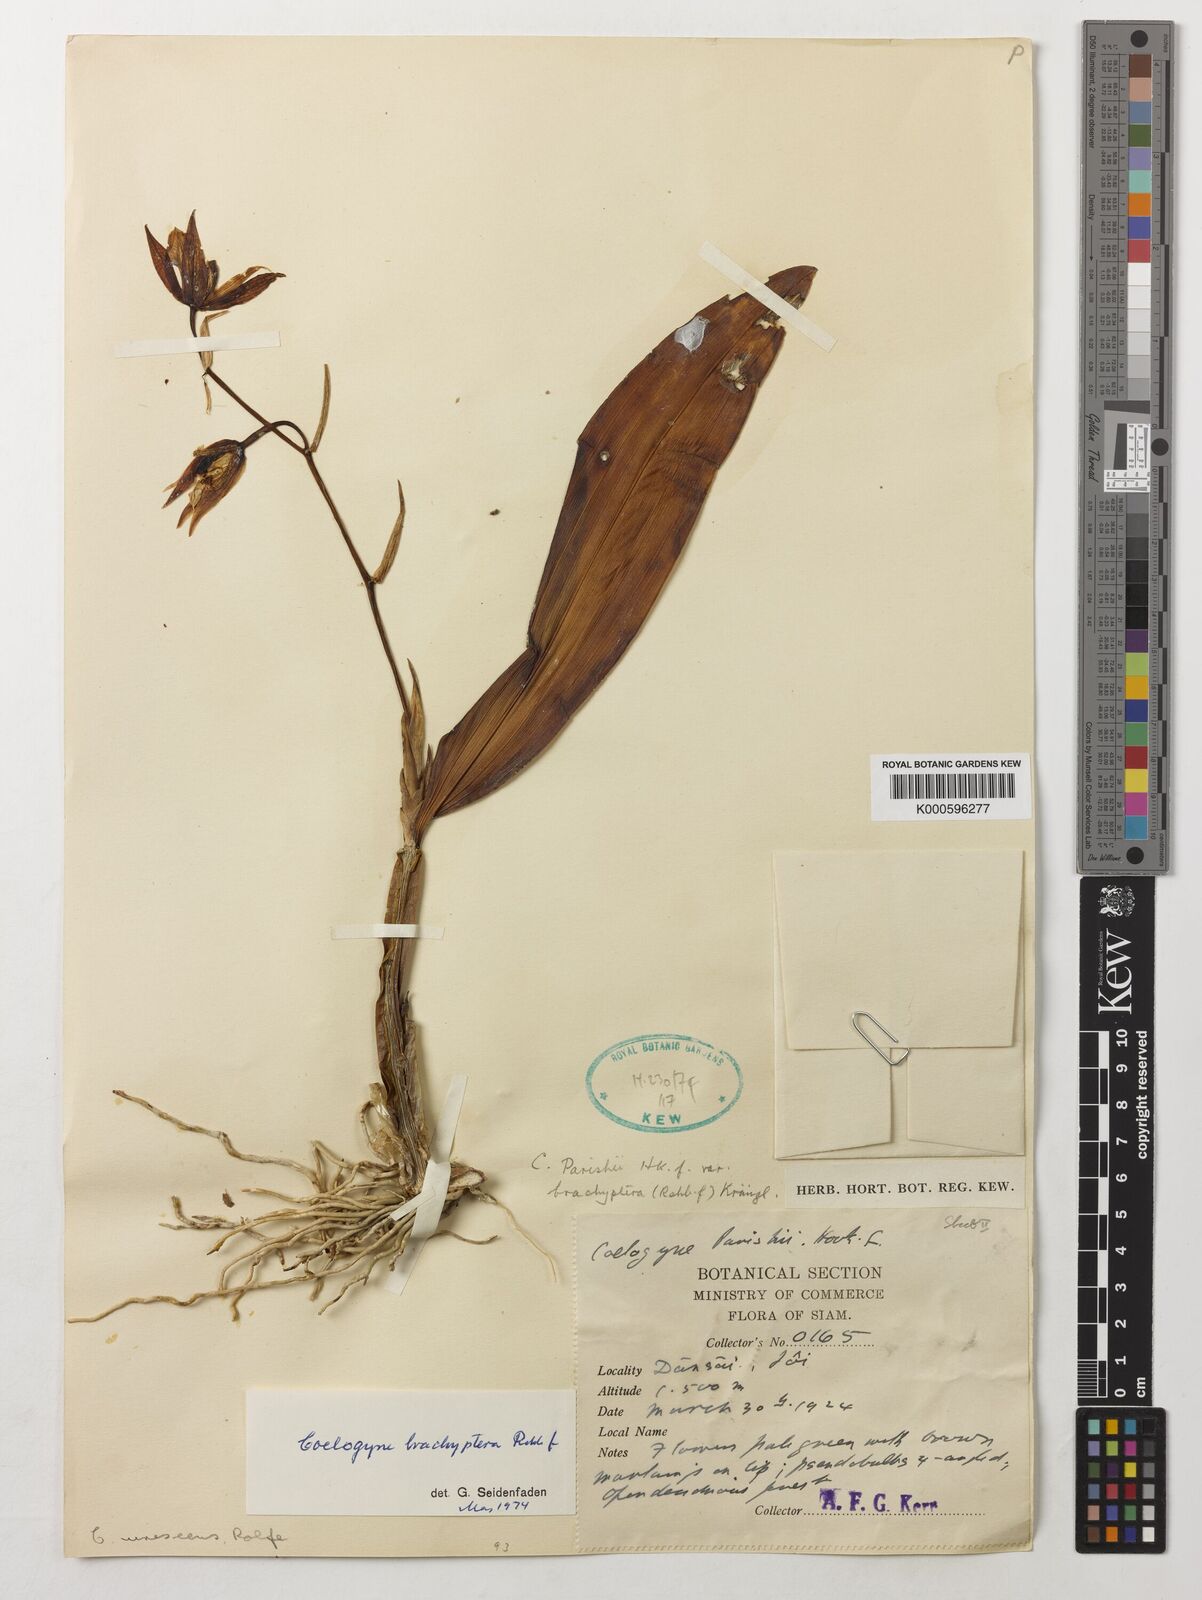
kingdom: Plantae
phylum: Tracheophyta
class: Liliopsida
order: Asparagales
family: Orchidaceae
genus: Coelogyne
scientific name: Coelogyne brachyptera
